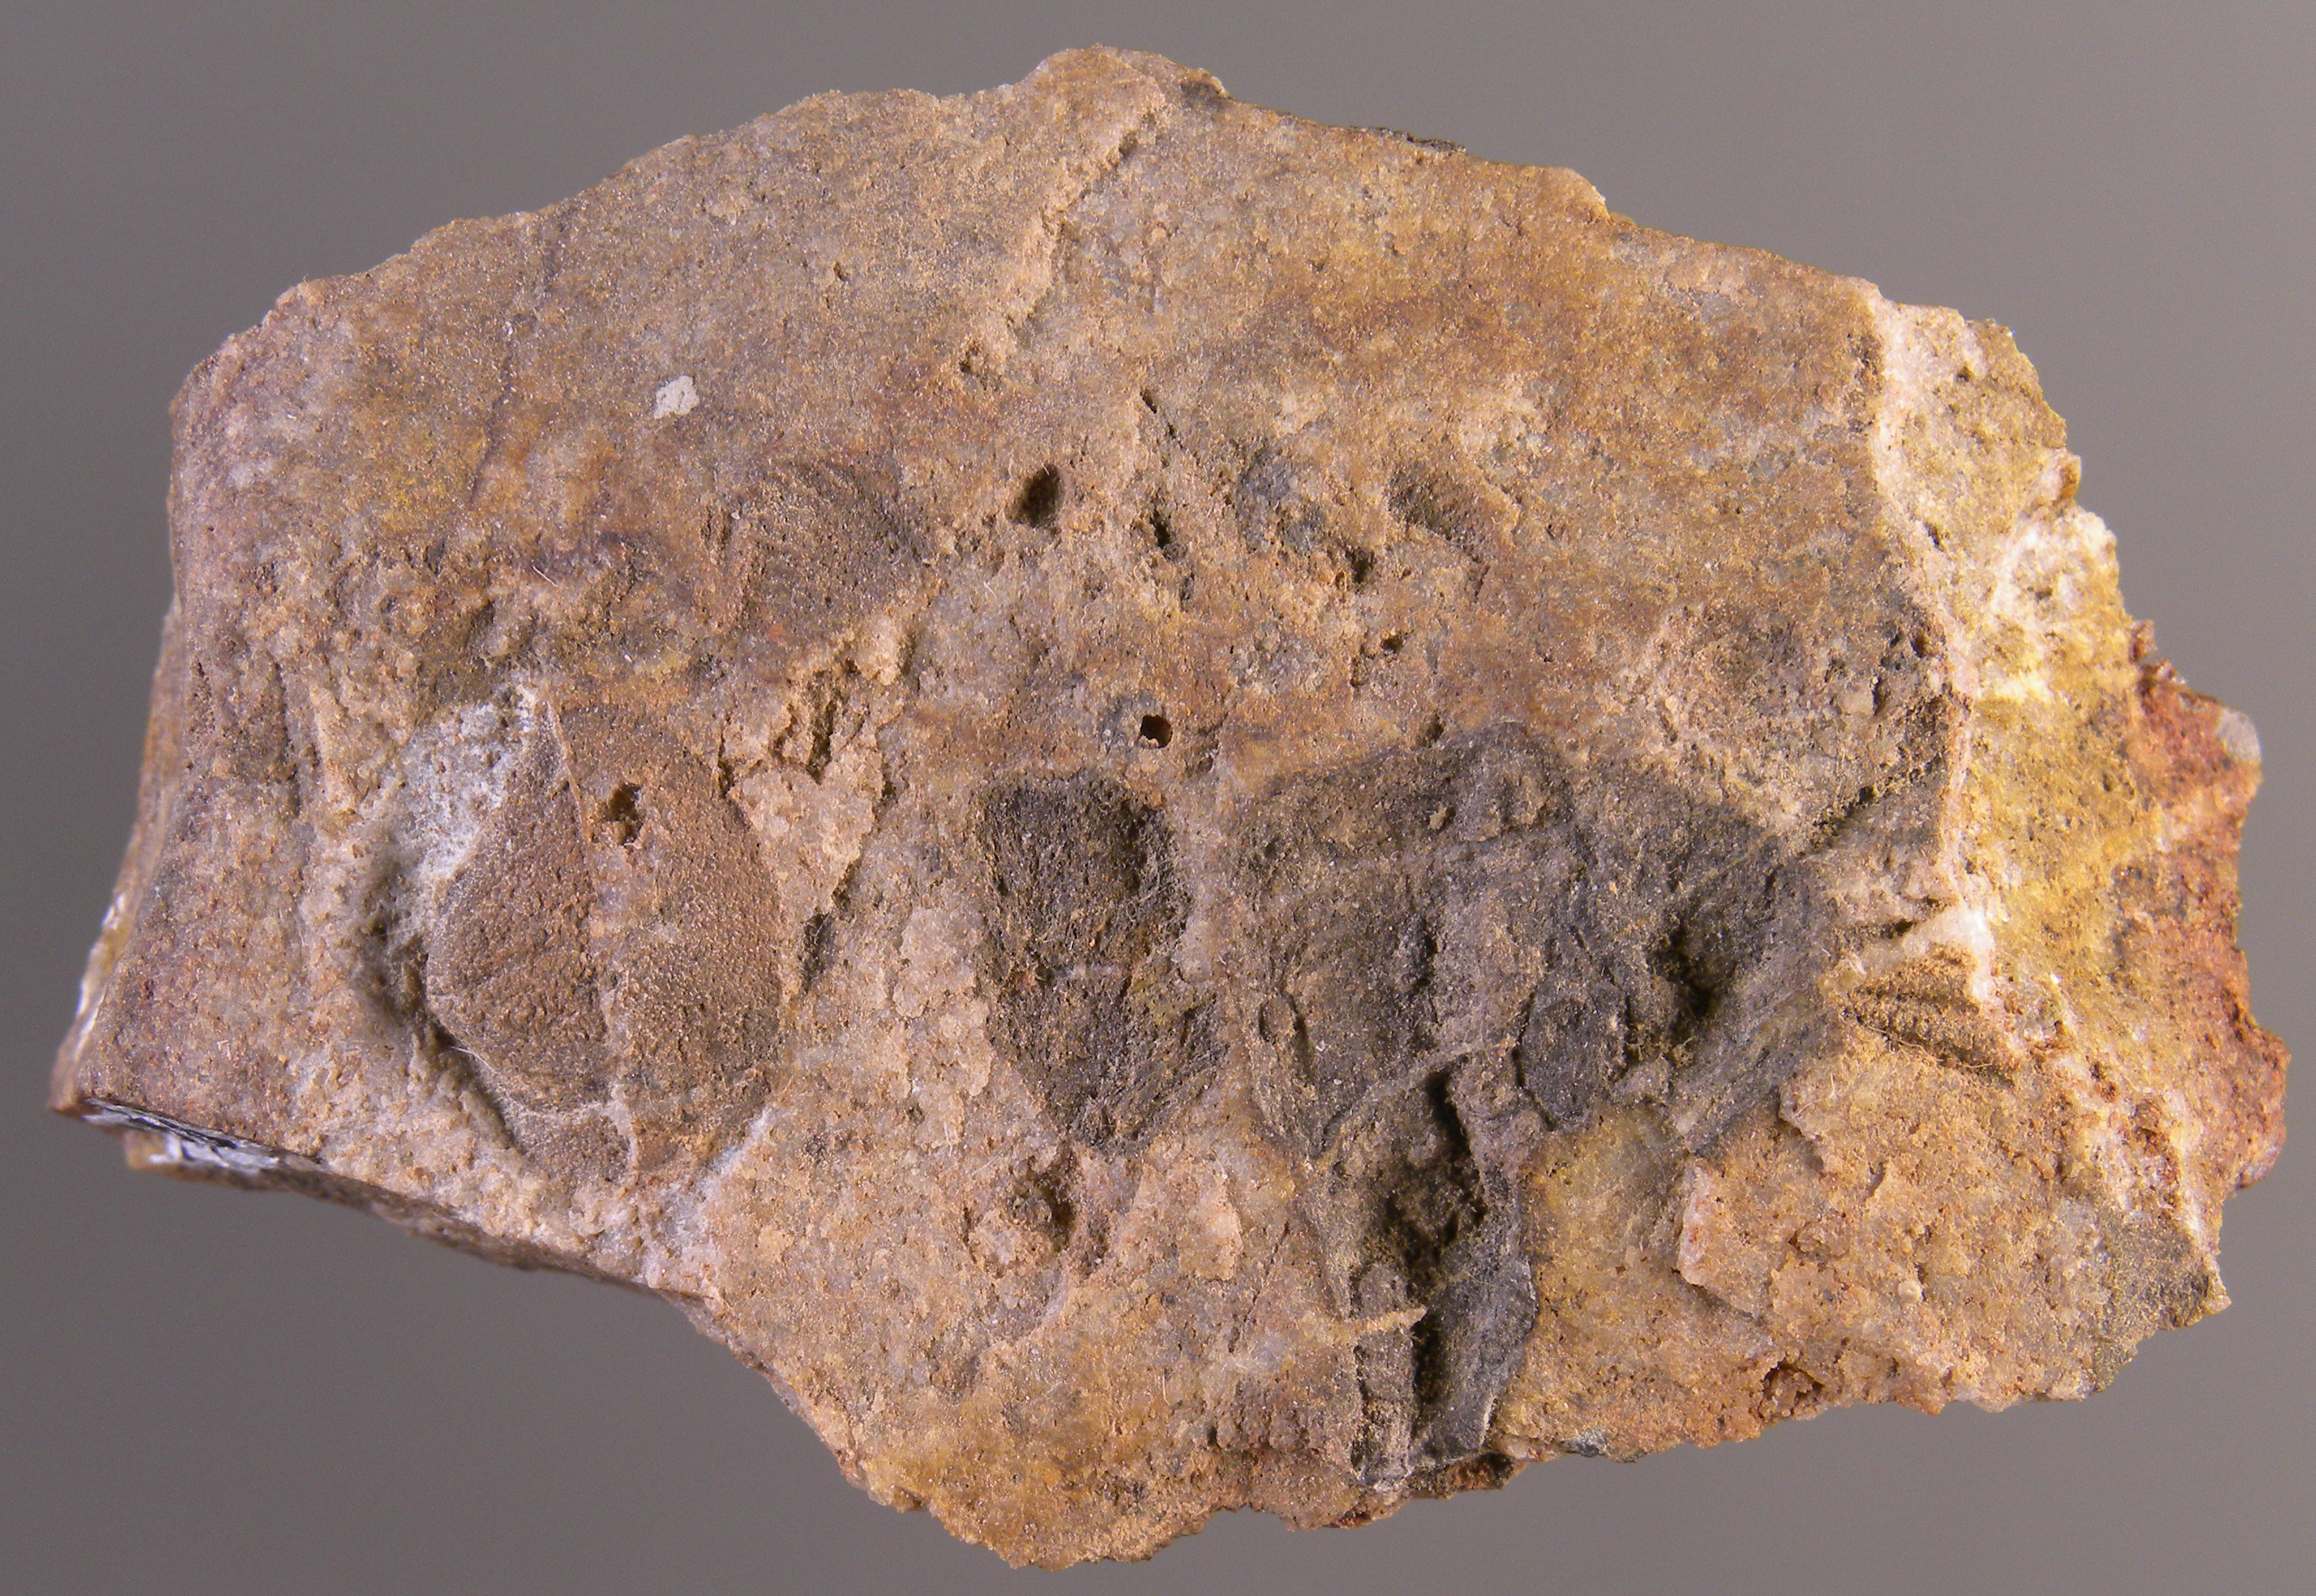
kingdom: Animalia
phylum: Arthropoda
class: Trilobita
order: Phacopida
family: Acastidae
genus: Acastava
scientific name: Acastava
